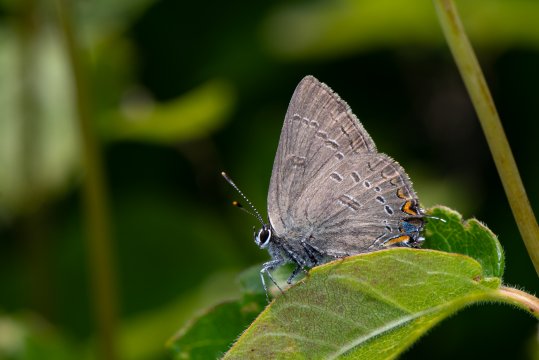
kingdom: Animalia
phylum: Arthropoda
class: Insecta
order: Lepidoptera
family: Lycaenidae
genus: Satyrium
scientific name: Satyrium edwardsii
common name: Edwards' Hairstreak
